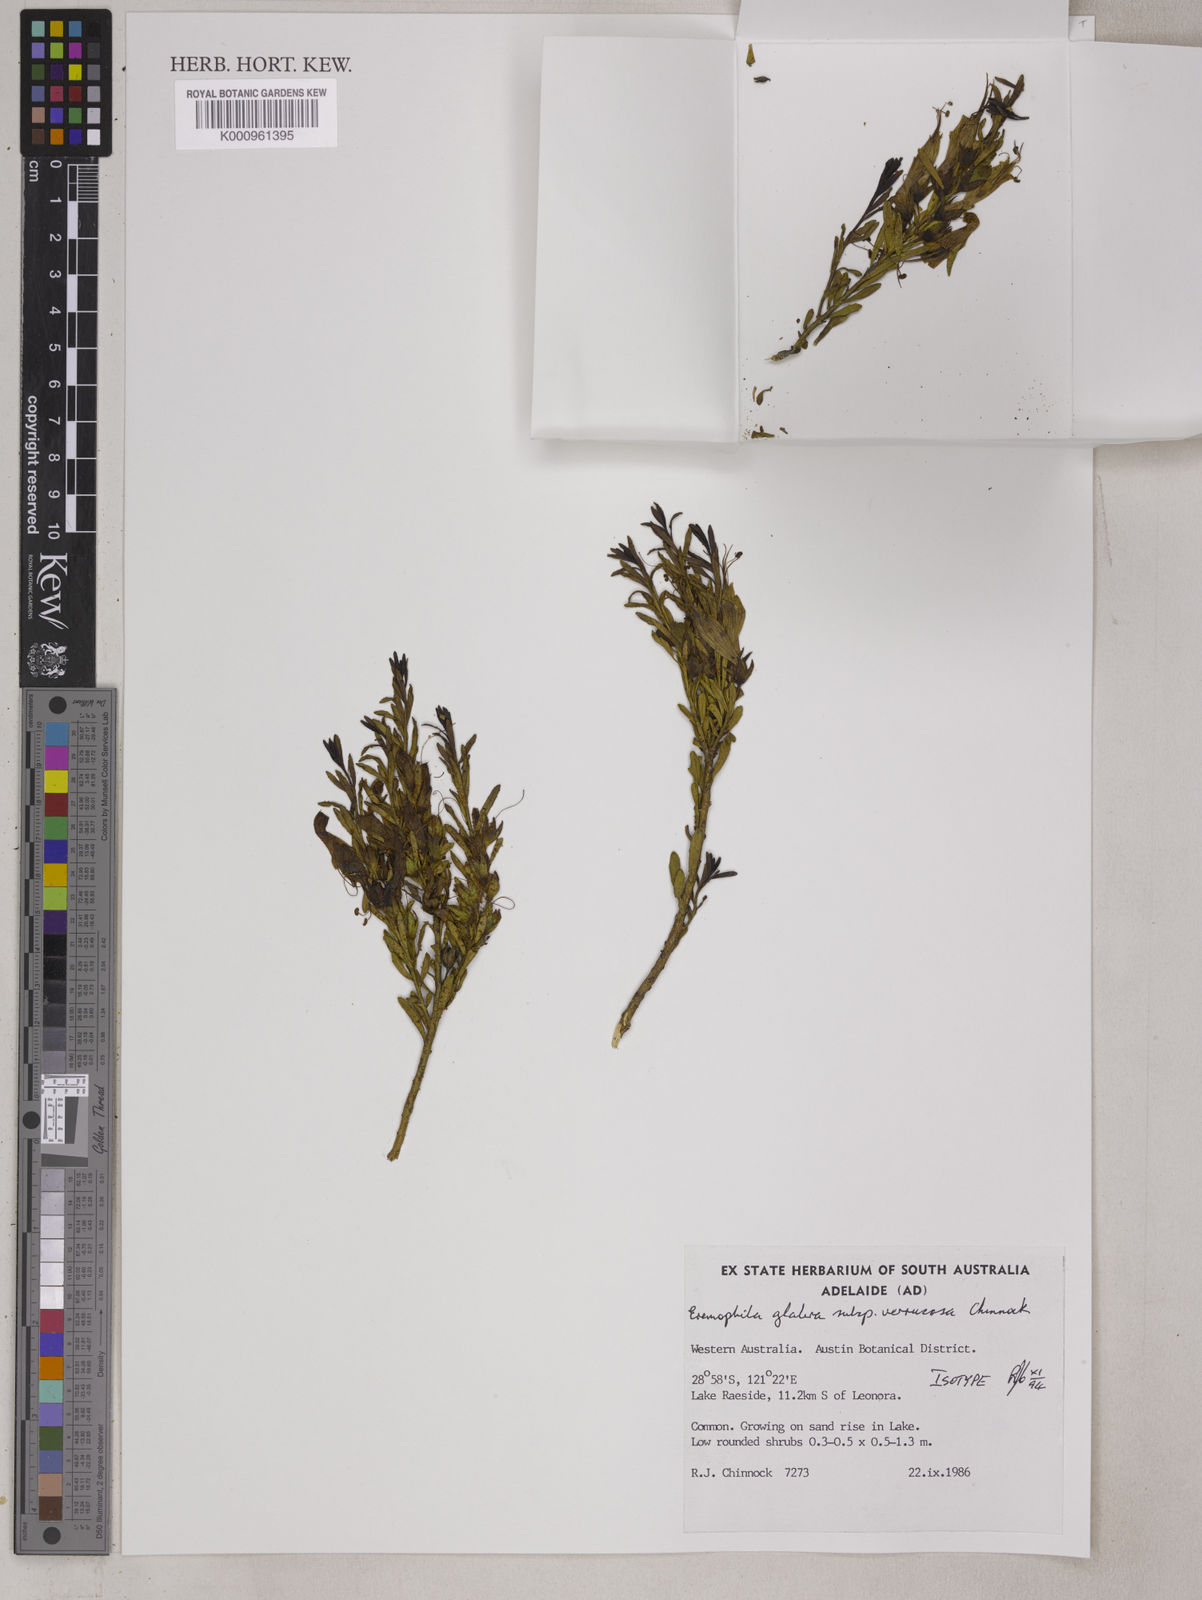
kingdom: Plantae
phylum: Tracheophyta
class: Magnoliopsida
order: Lamiales
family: Scrophulariaceae
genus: Eremophila
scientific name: Eremophila
